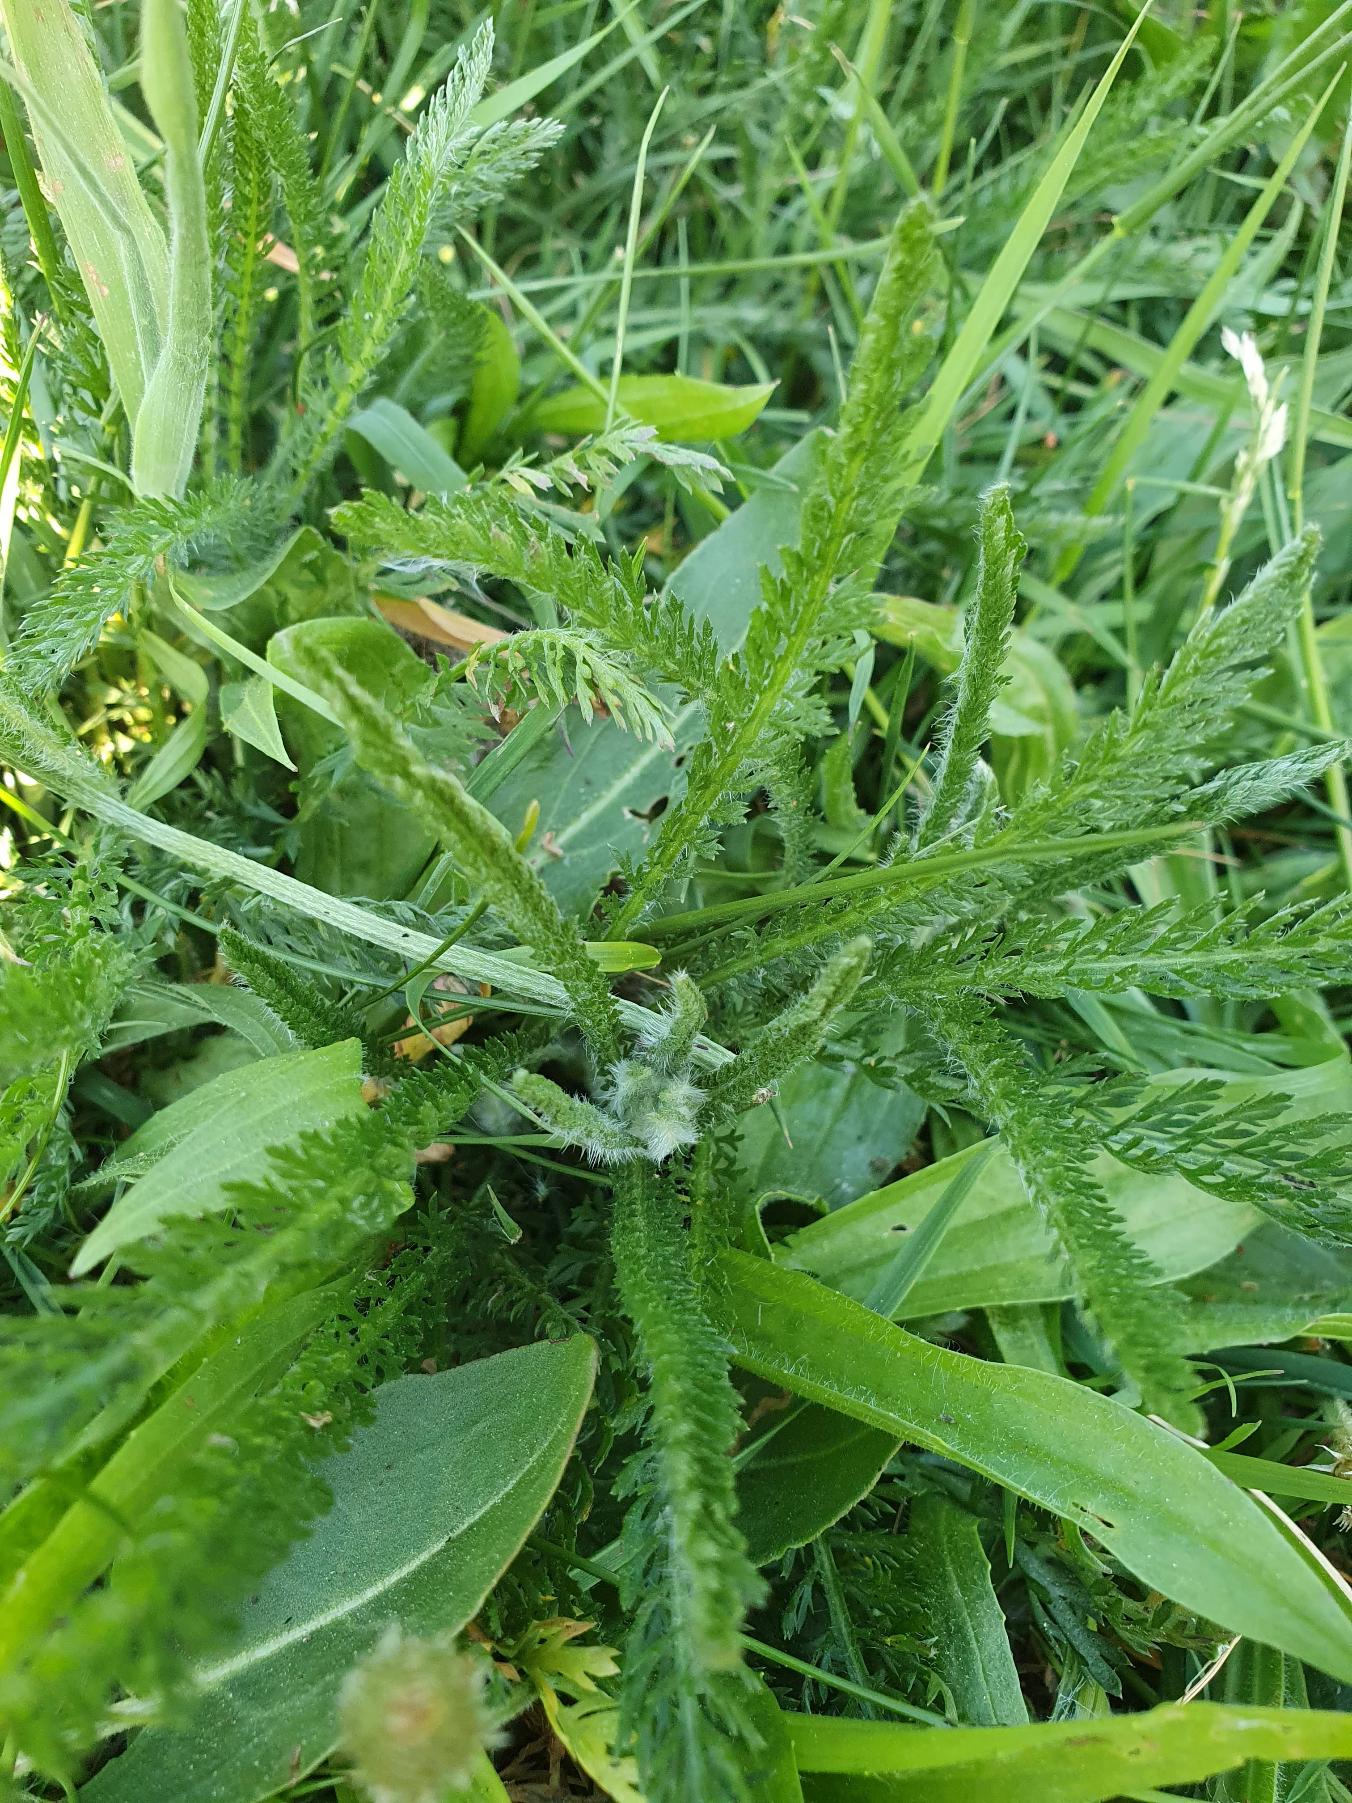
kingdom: Plantae
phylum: Tracheophyta
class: Magnoliopsida
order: Asterales
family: Asteraceae
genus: Achillea
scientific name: Achillea millefolium
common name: Almindelig røllike
